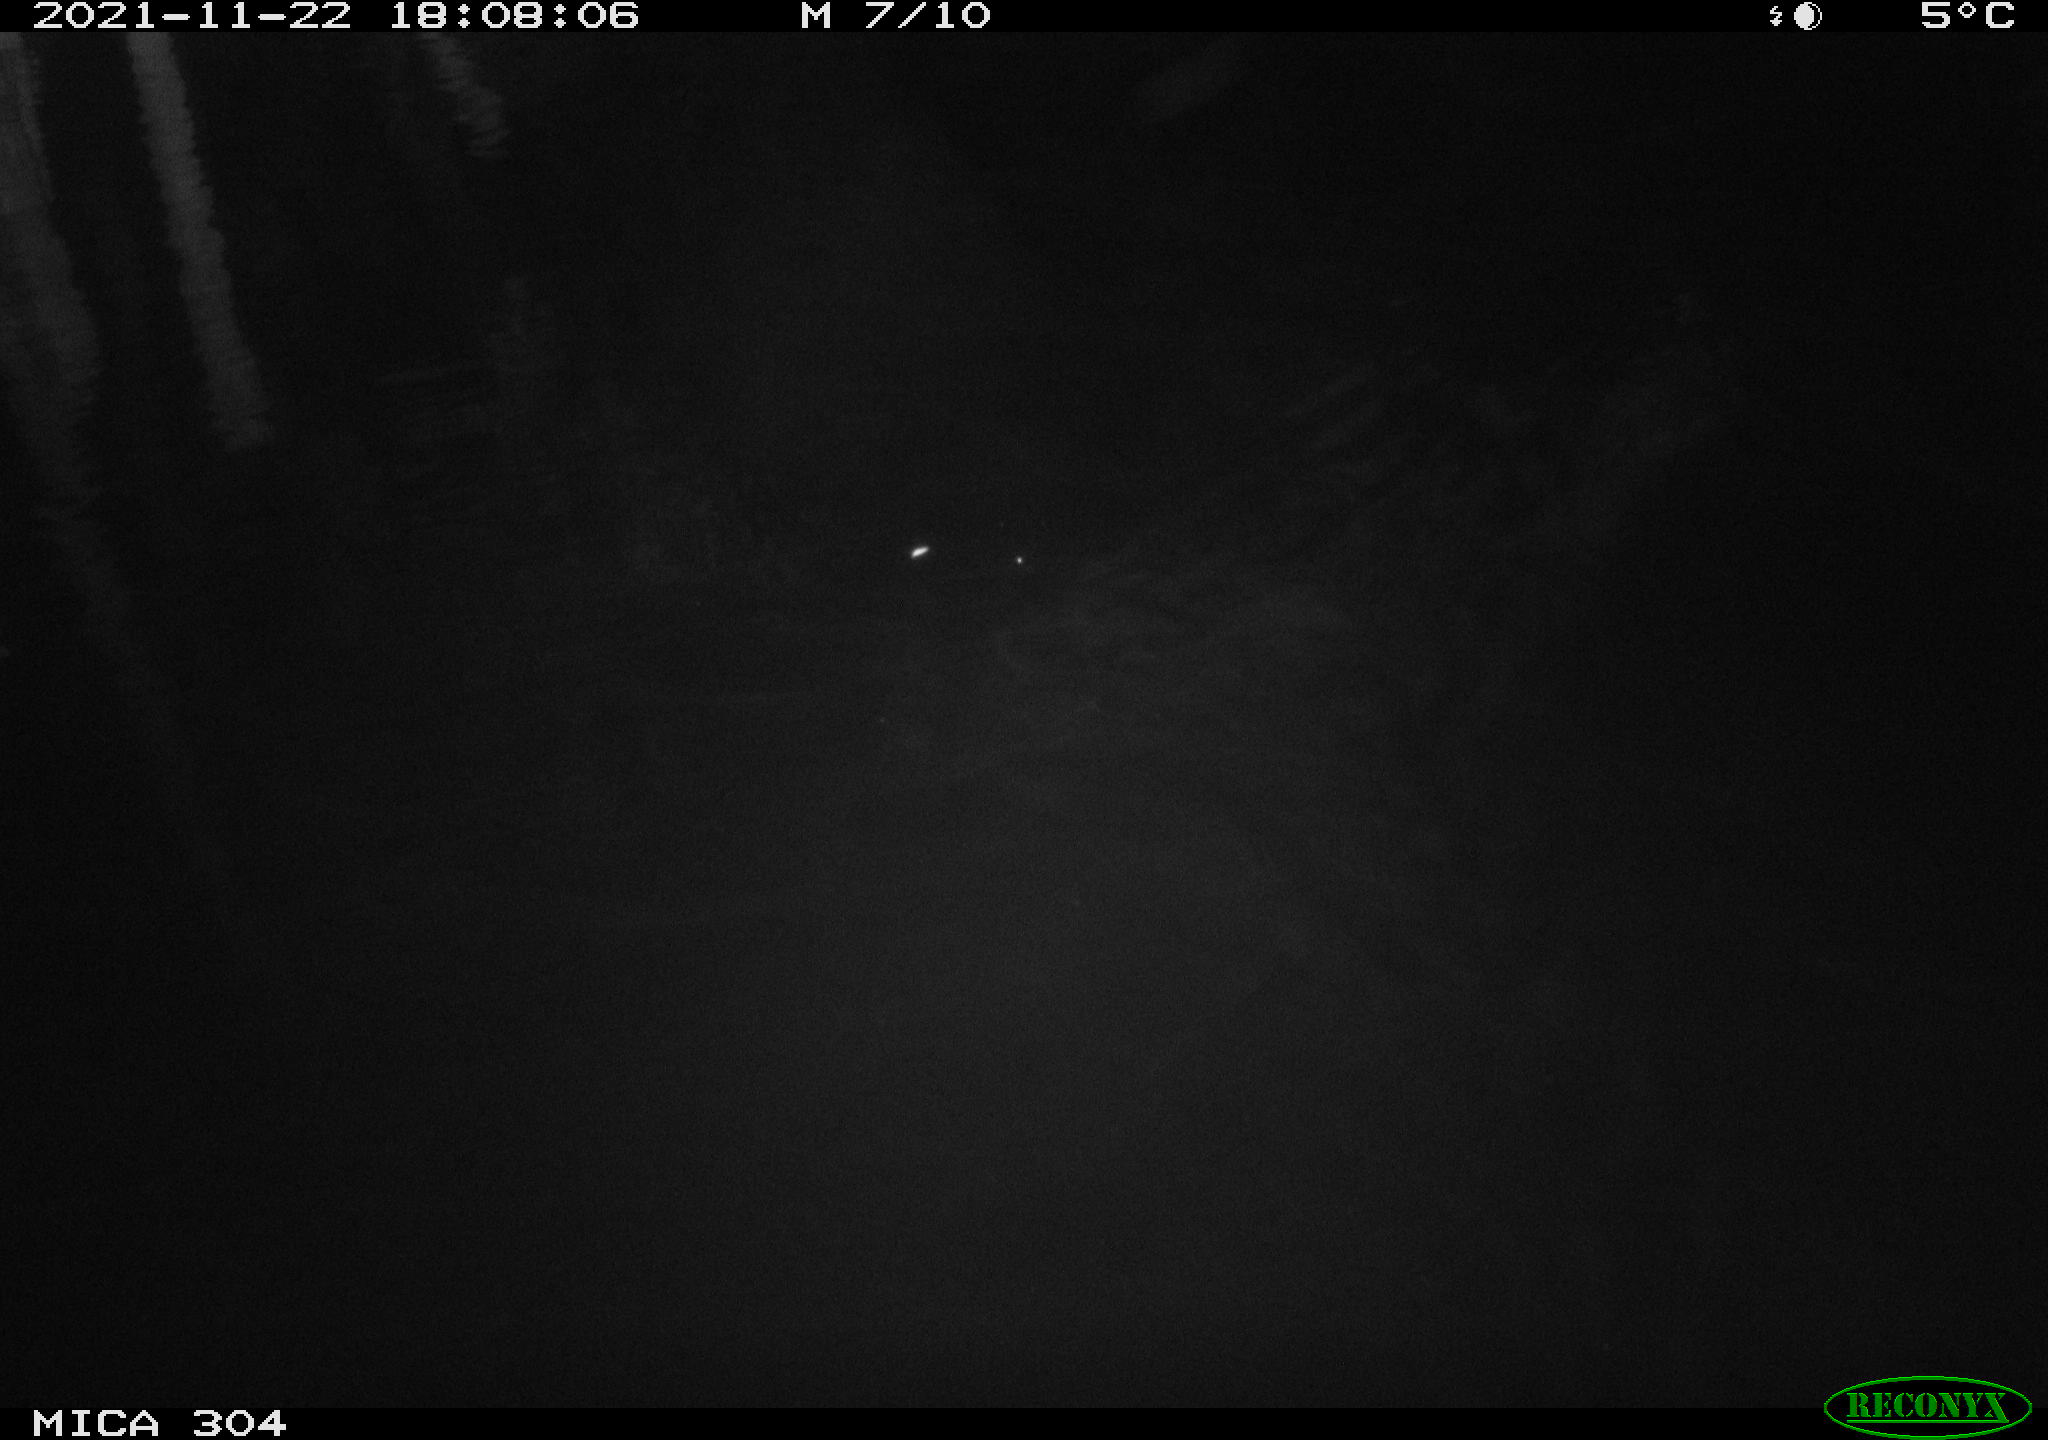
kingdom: Animalia
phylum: Chordata
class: Mammalia
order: Rodentia
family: Muridae
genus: Rattus
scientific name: Rattus norvegicus
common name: Brown rat
